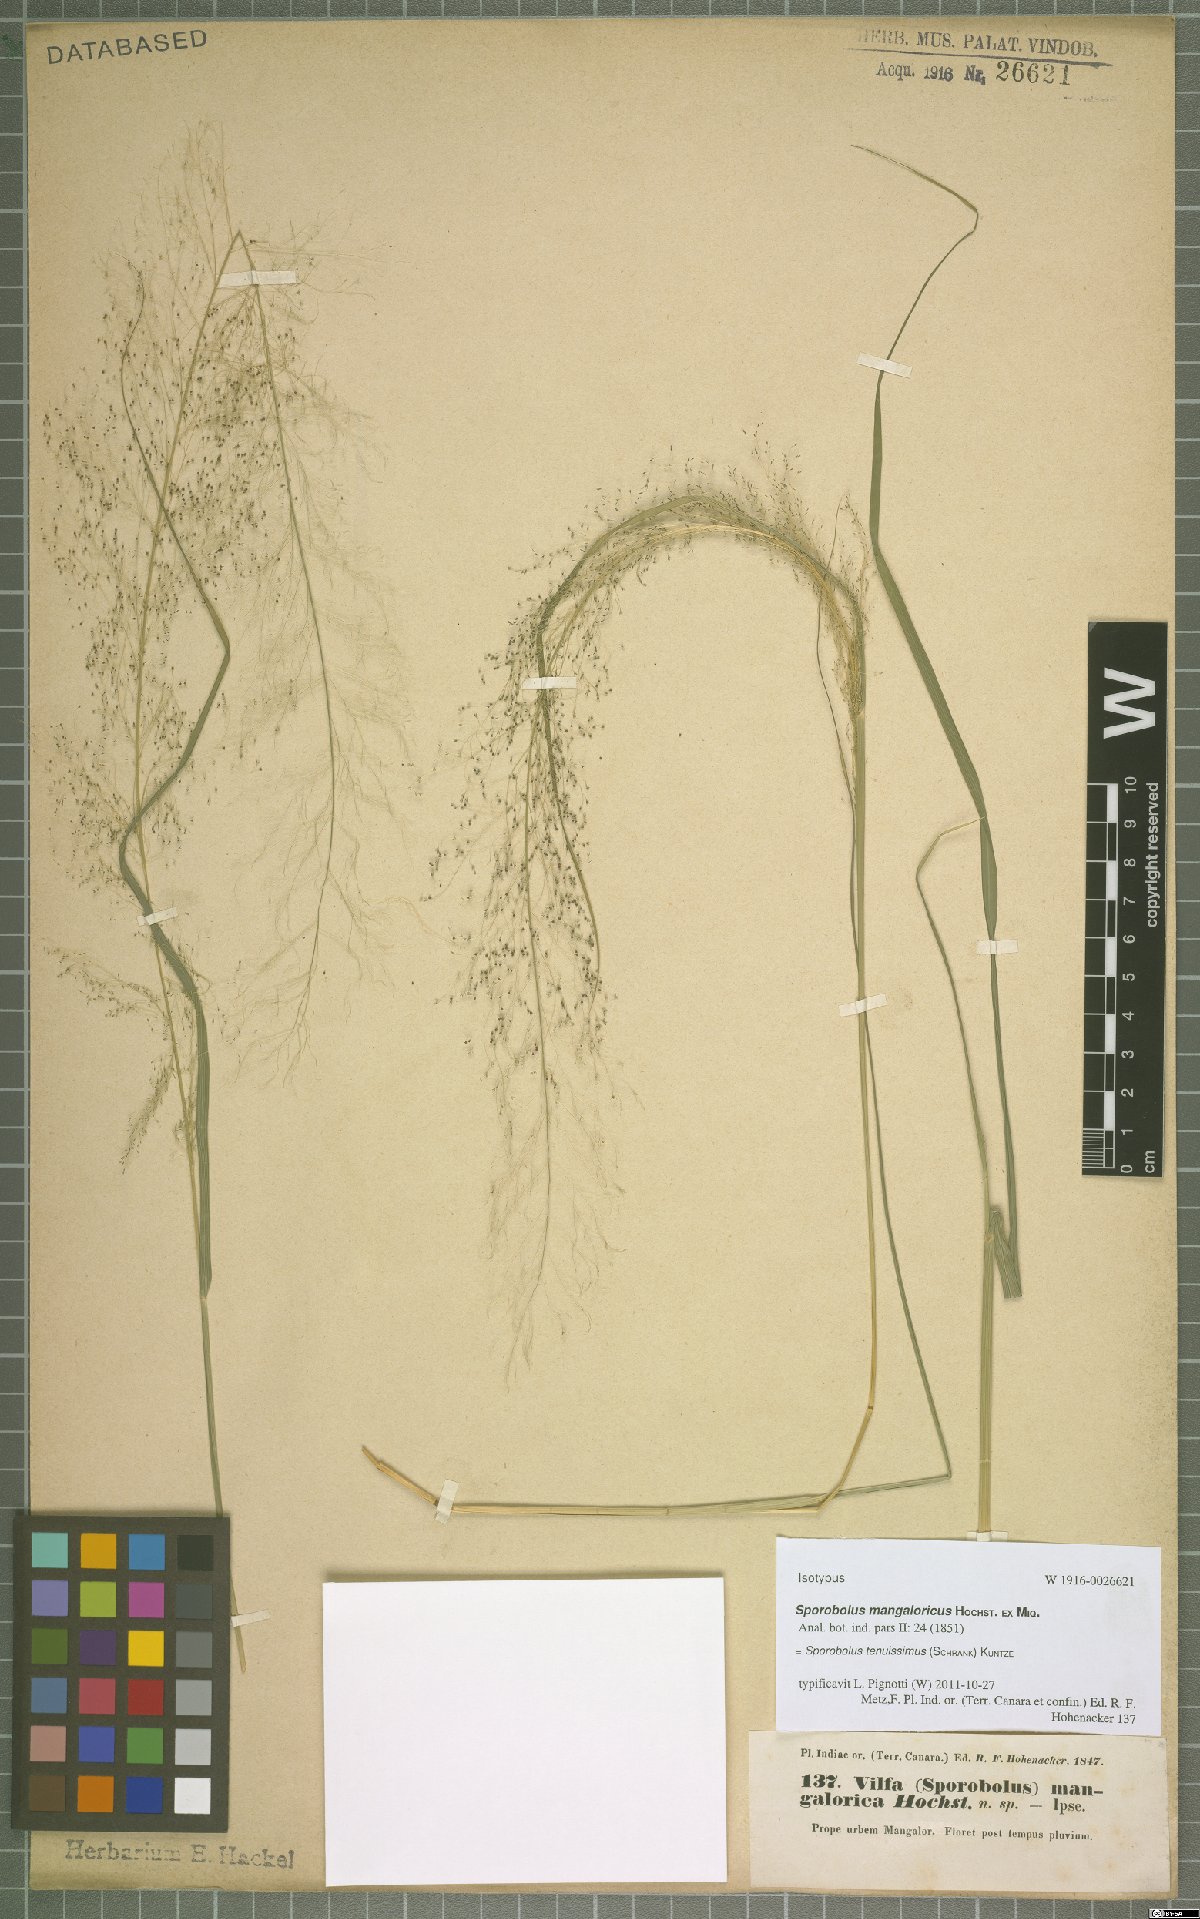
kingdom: Plantae
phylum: Tracheophyta
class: Liliopsida
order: Poales
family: Poaceae
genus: Sporobolus
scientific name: Sporobolus tenuissimus
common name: Tropical dropseed
